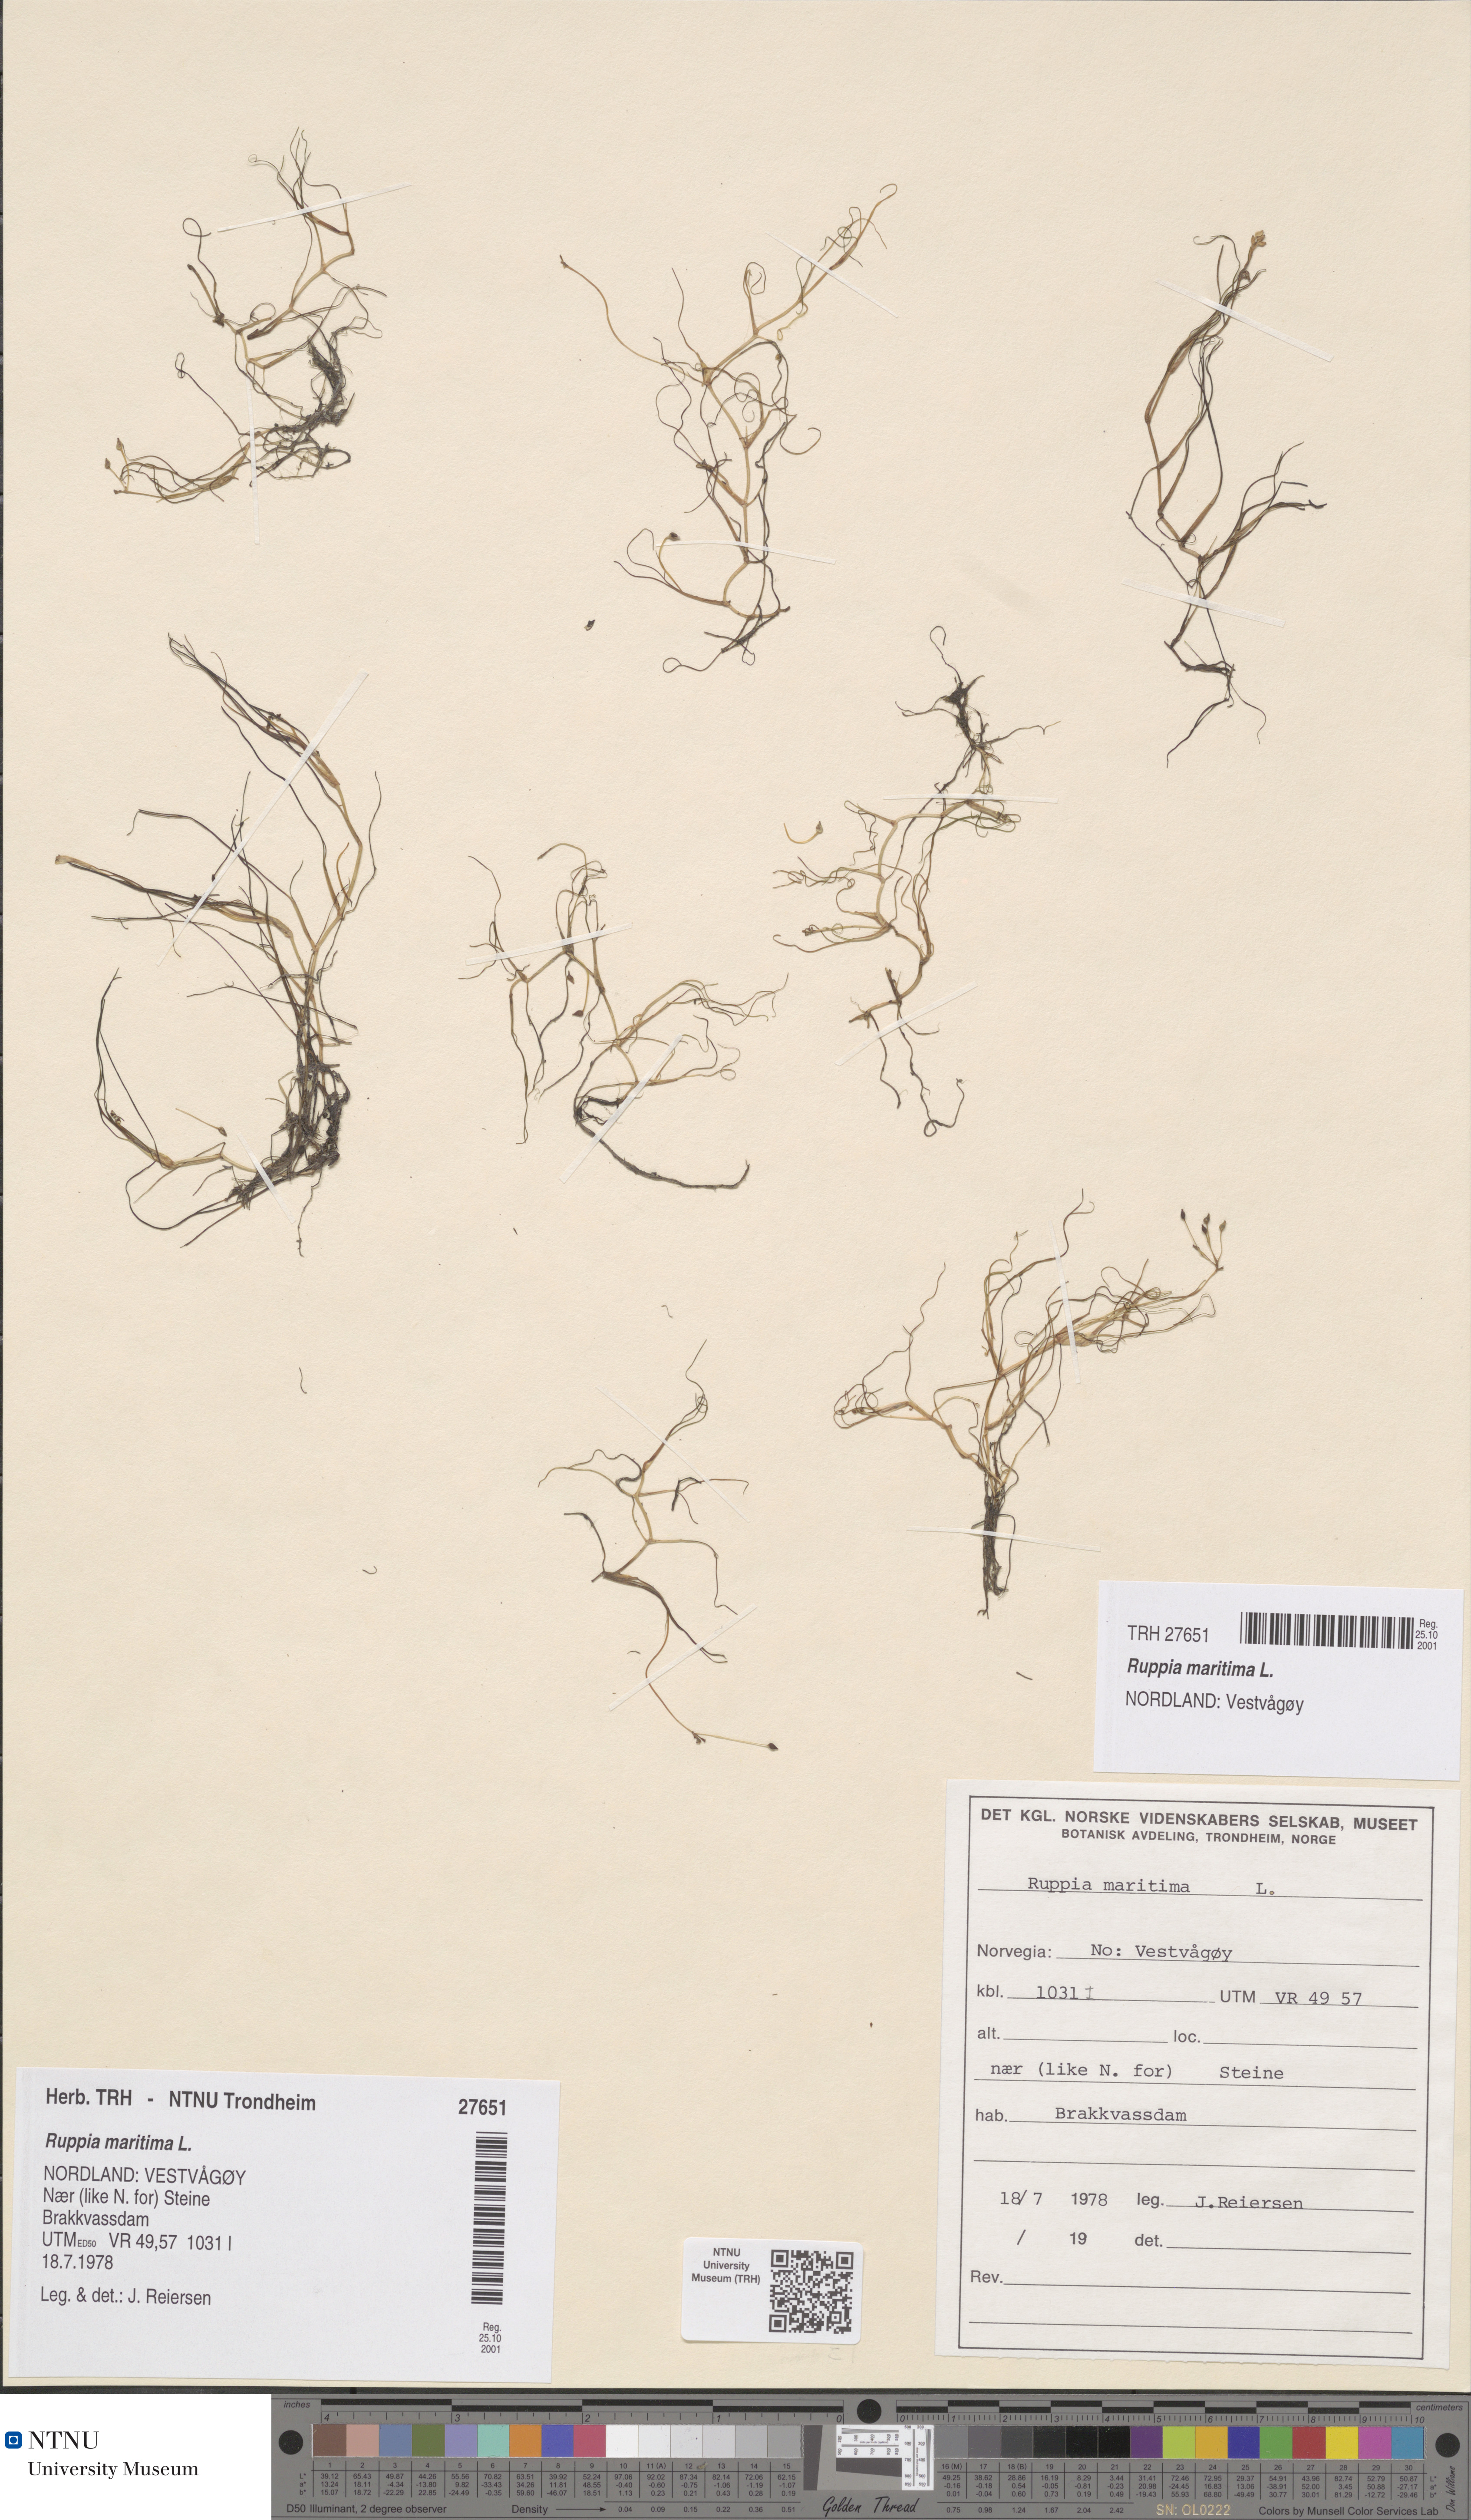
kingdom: Plantae
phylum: Tracheophyta
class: Liliopsida
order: Alismatales
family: Ruppiaceae
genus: Ruppia
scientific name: Ruppia maritima
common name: Beaked tasselweed
